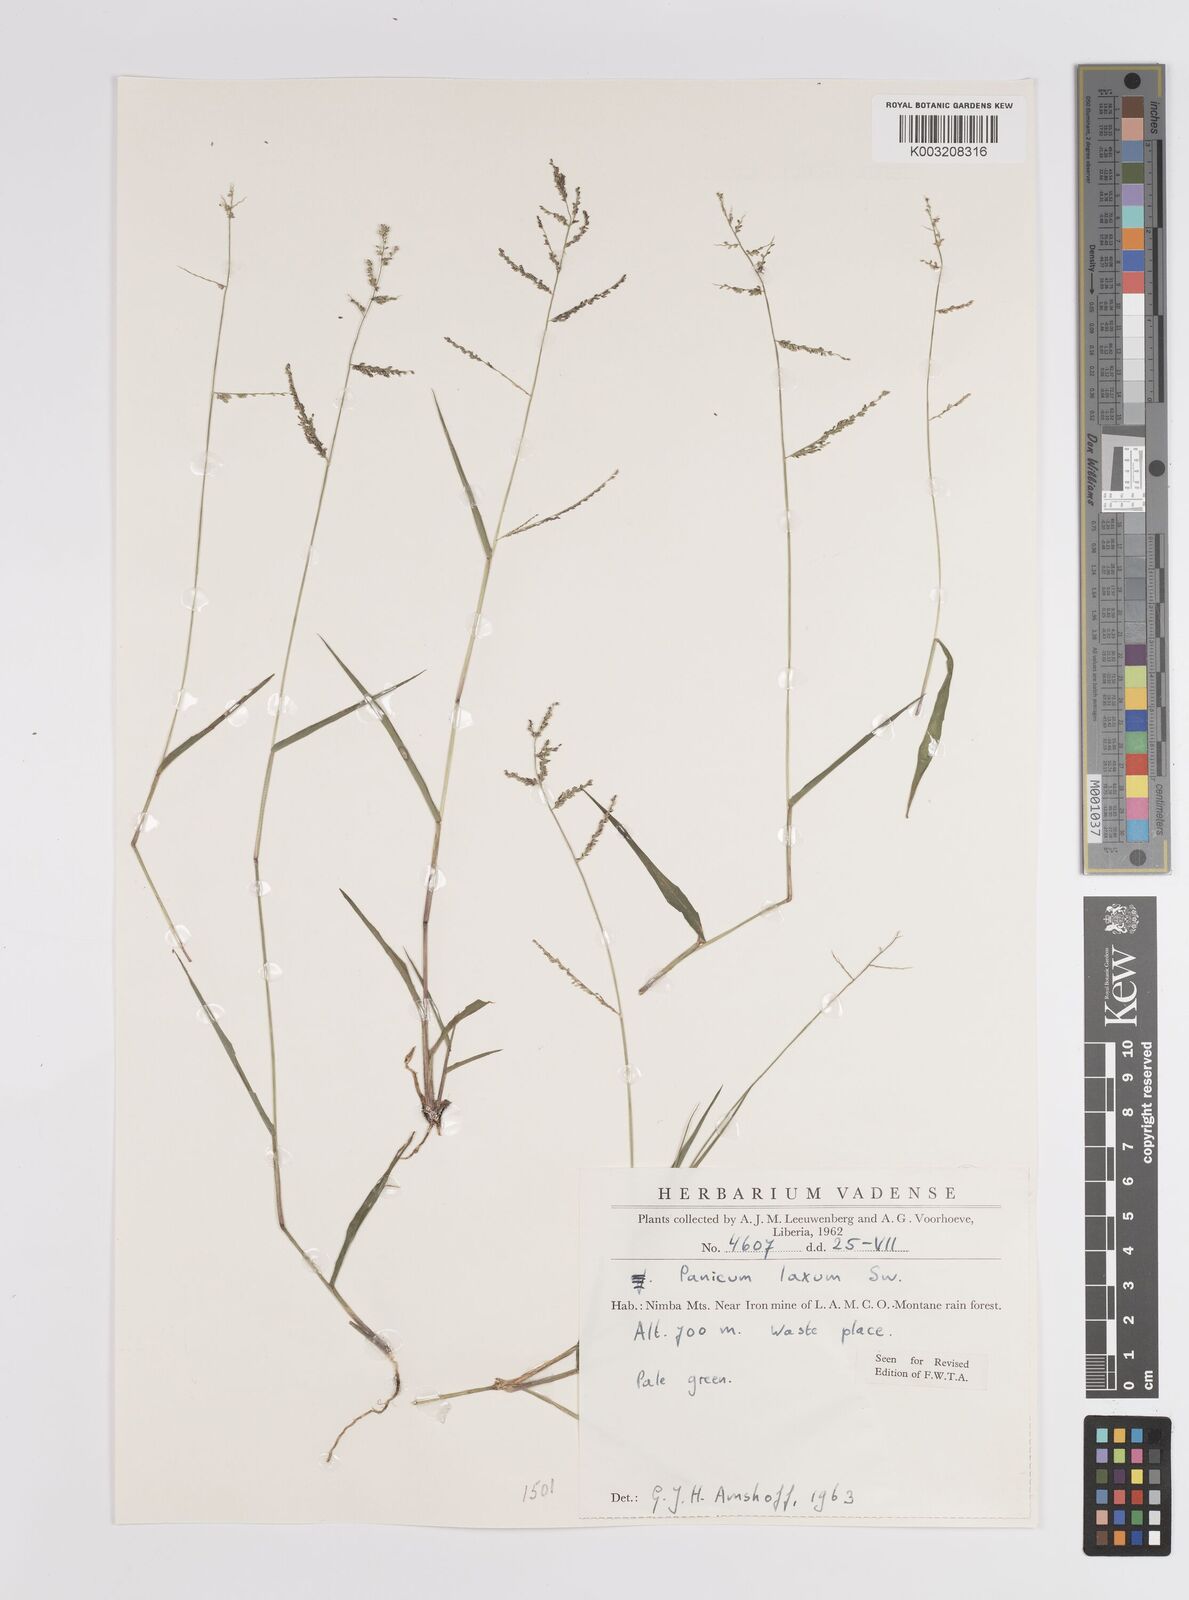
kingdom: Plantae
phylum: Tracheophyta
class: Liliopsida
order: Poales
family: Poaceae
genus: Steinchisma
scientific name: Steinchisma laxum
